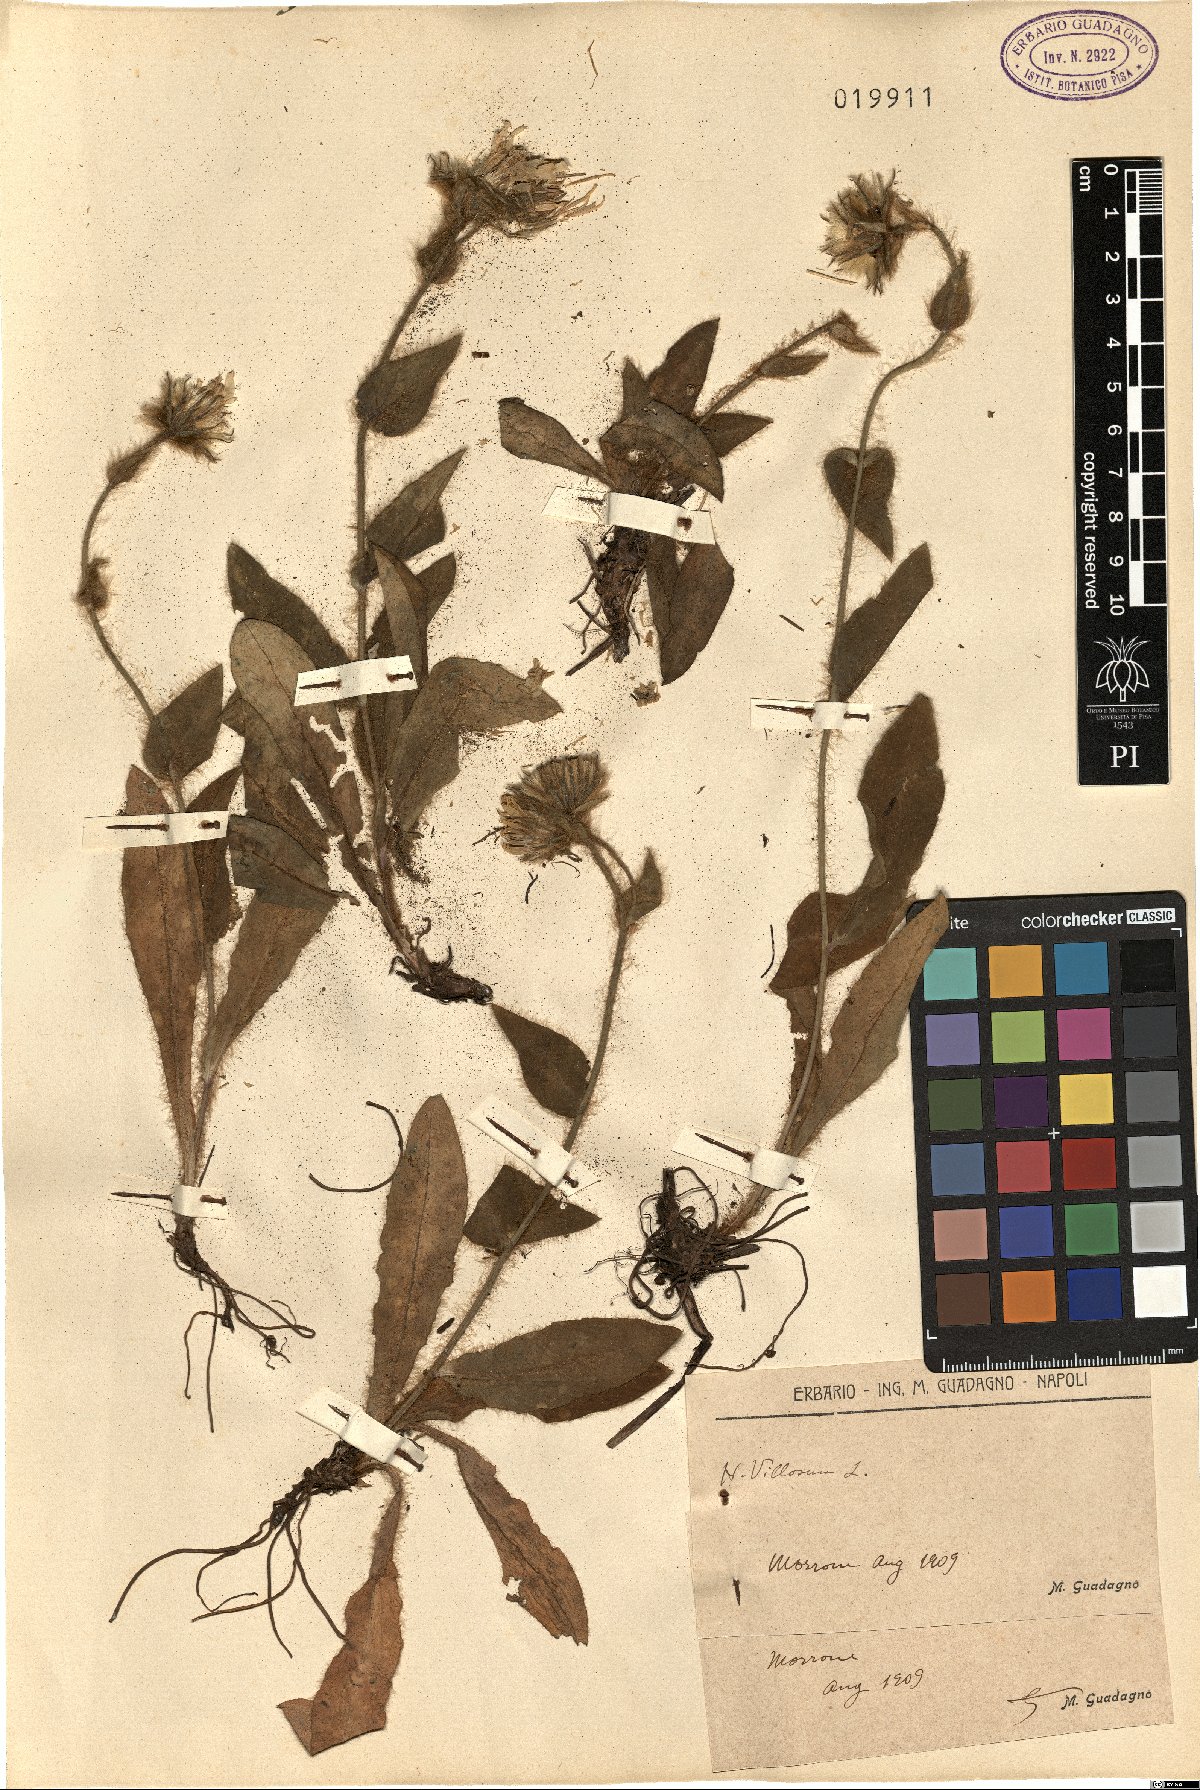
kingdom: Plantae
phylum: Tracheophyta
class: Magnoliopsida
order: Asterales
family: Asteraceae
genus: Hieracium
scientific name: Hieracium villosum
